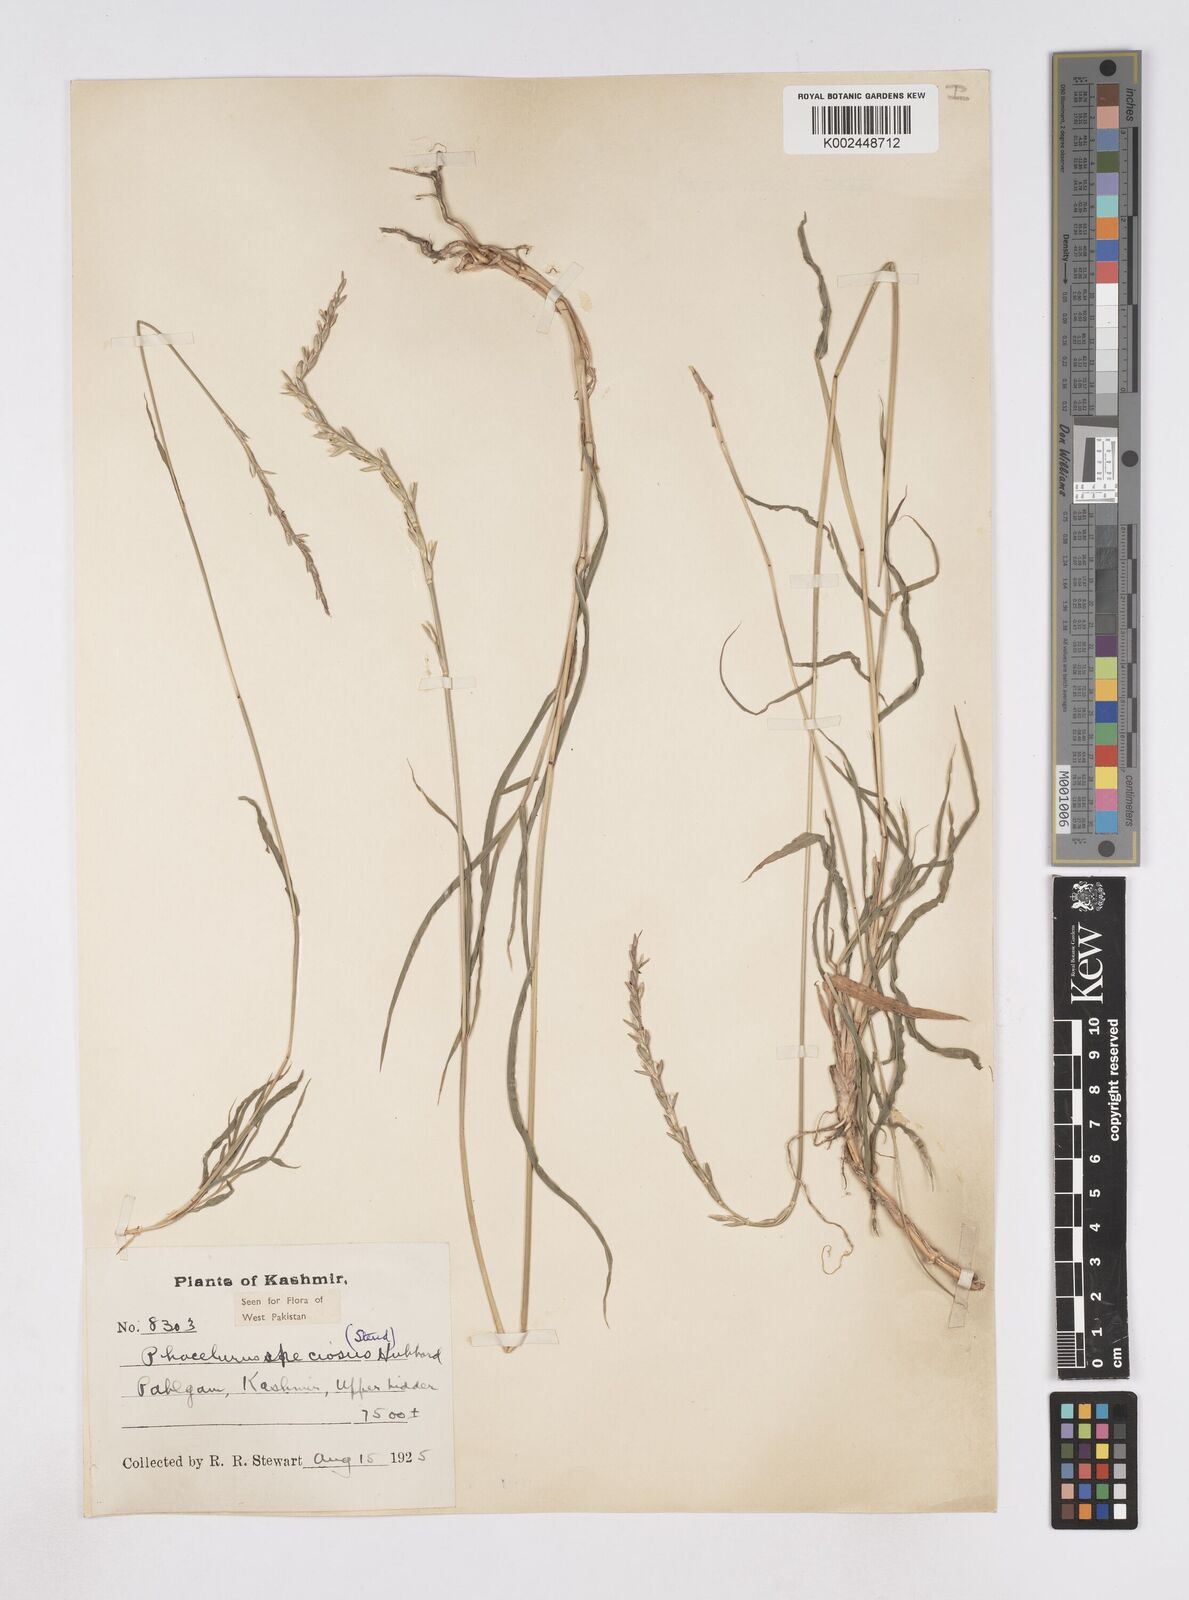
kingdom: Plantae
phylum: Tracheophyta
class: Liliopsida
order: Poales
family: Poaceae
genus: Phacelurus
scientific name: Phacelurus speciosus
